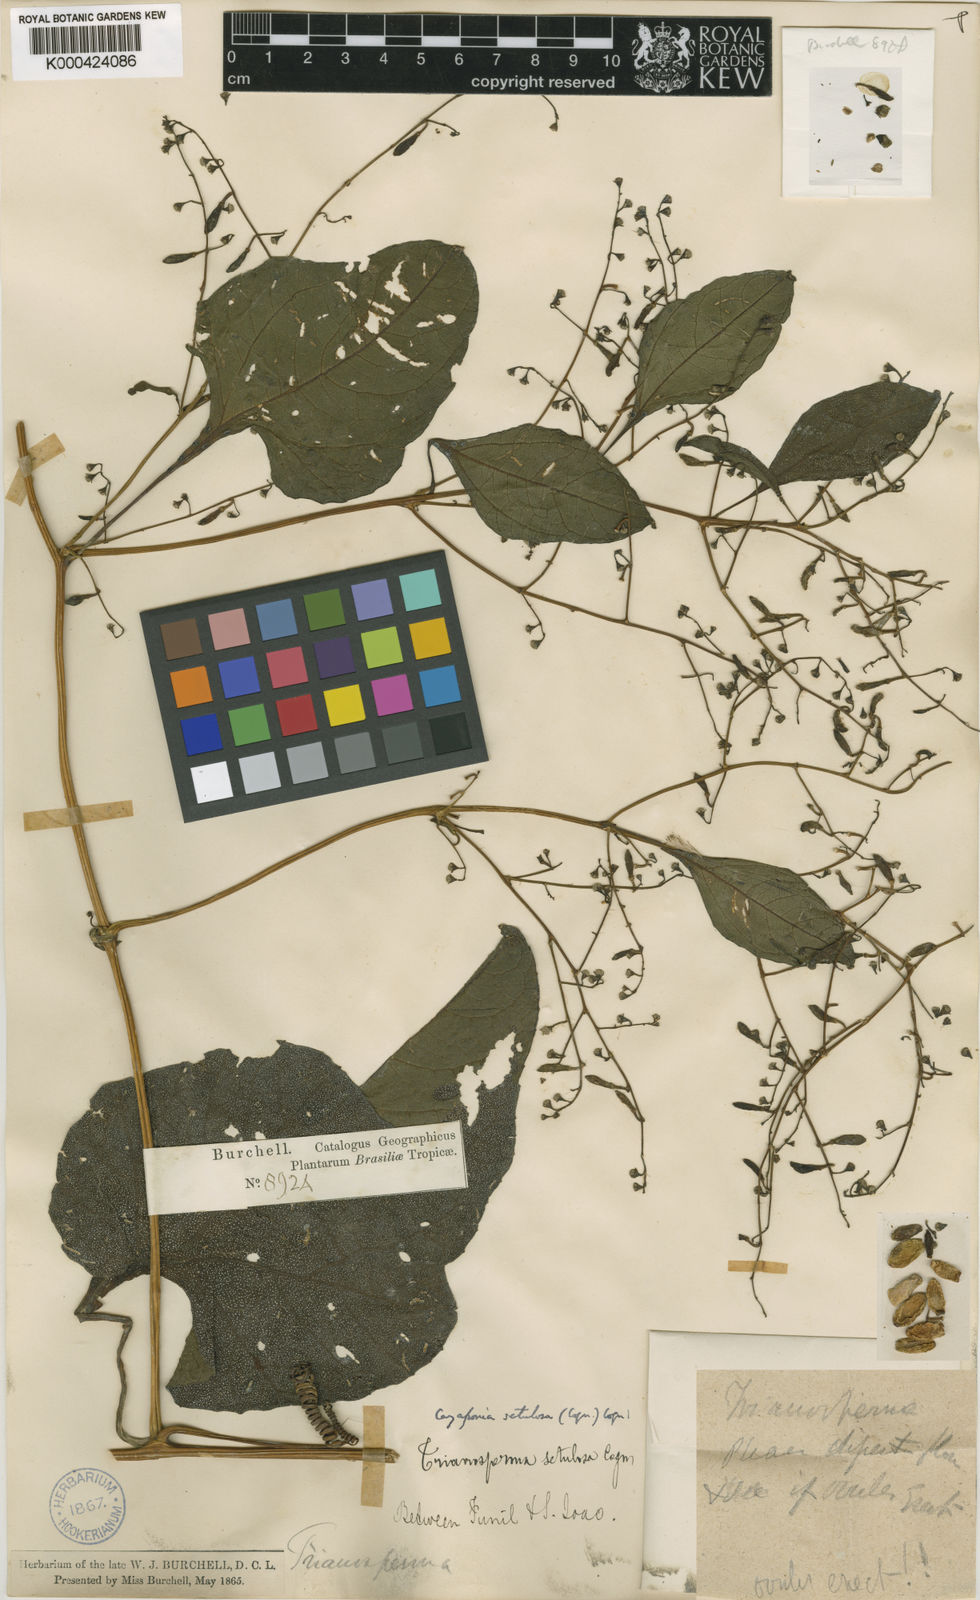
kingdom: Plantae
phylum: Tracheophyta
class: Magnoliopsida
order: Cucurbitales
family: Cucurbitaceae
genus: Cayaponia
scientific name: Cayaponia setulosa
